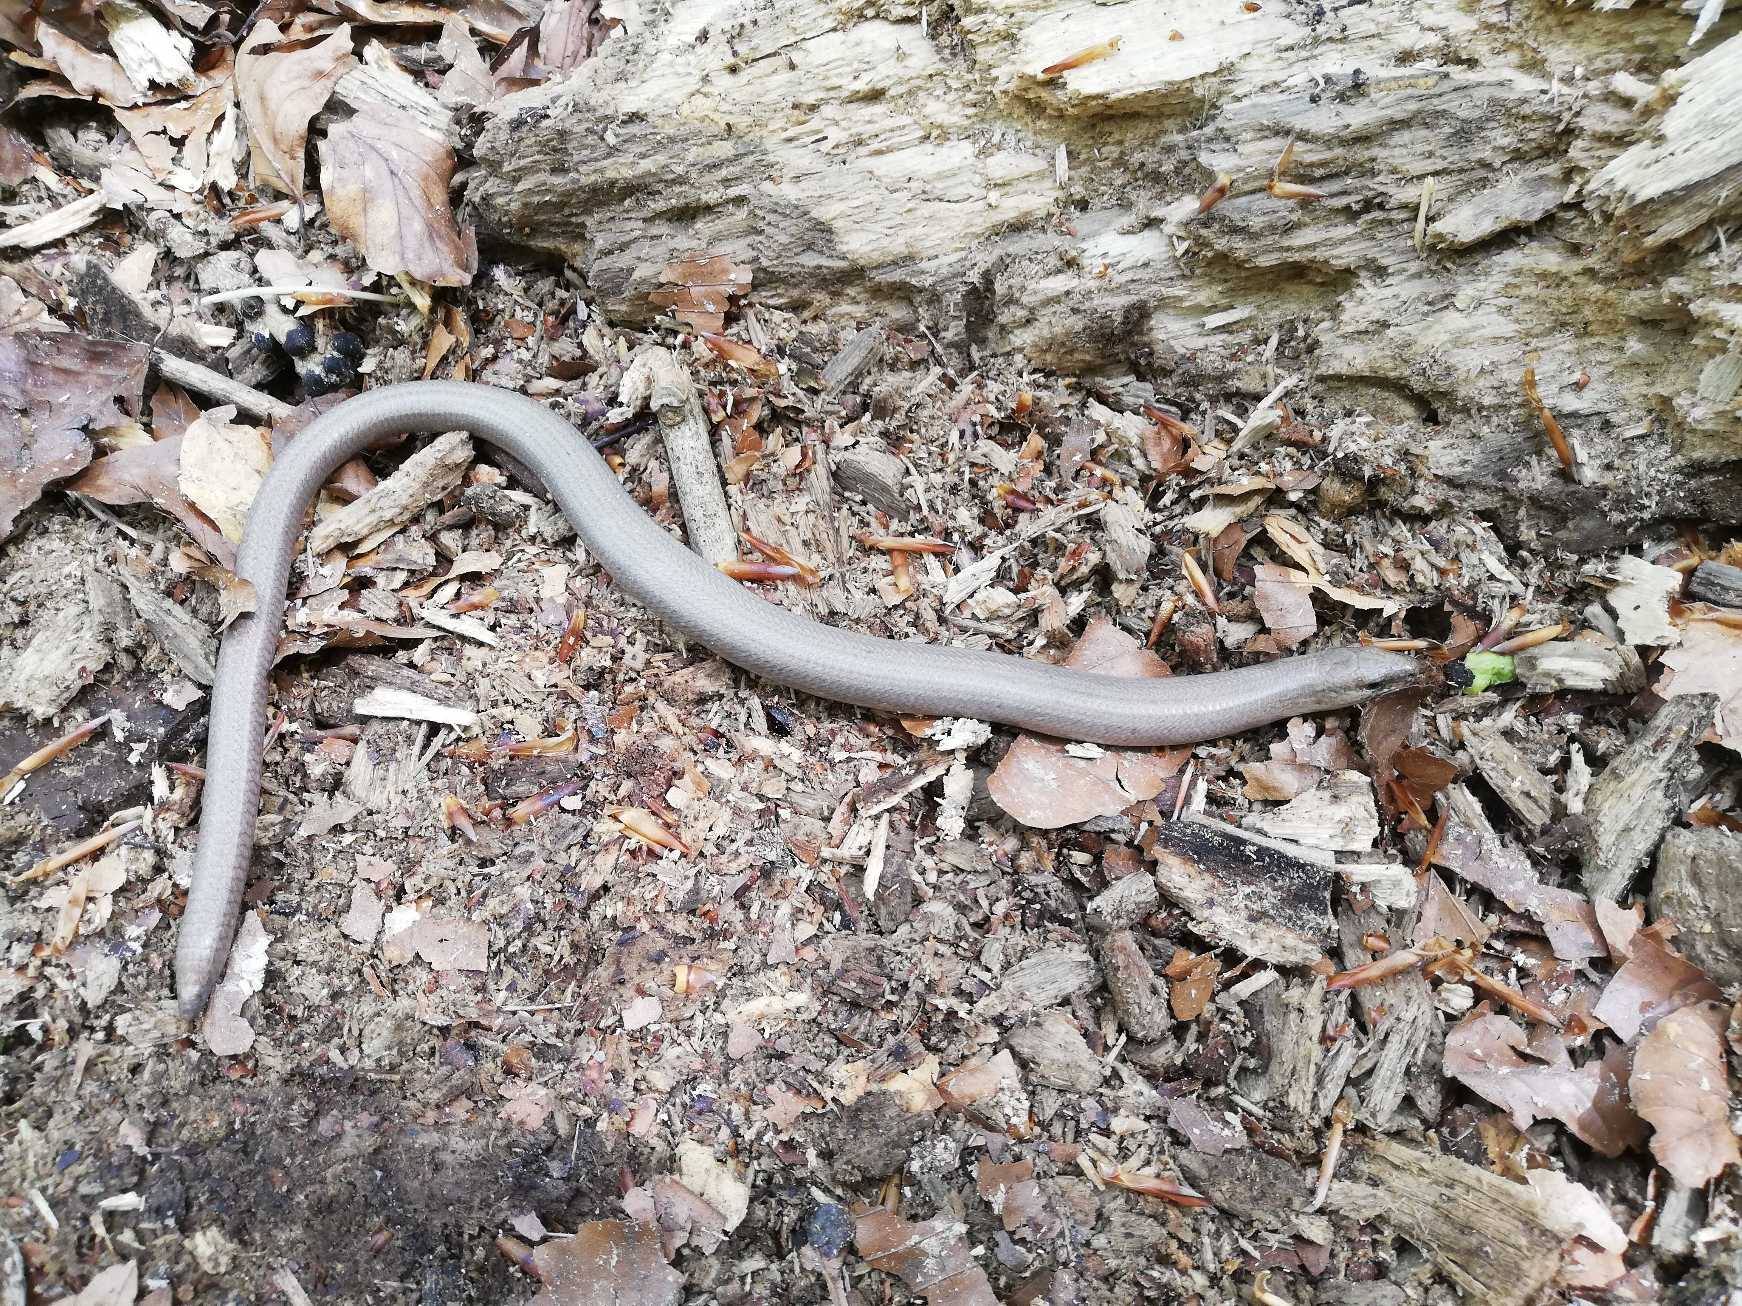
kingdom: Animalia
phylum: Chordata
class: Squamata
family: Anguidae
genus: Anguis
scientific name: Anguis fragilis
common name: Stålorm
